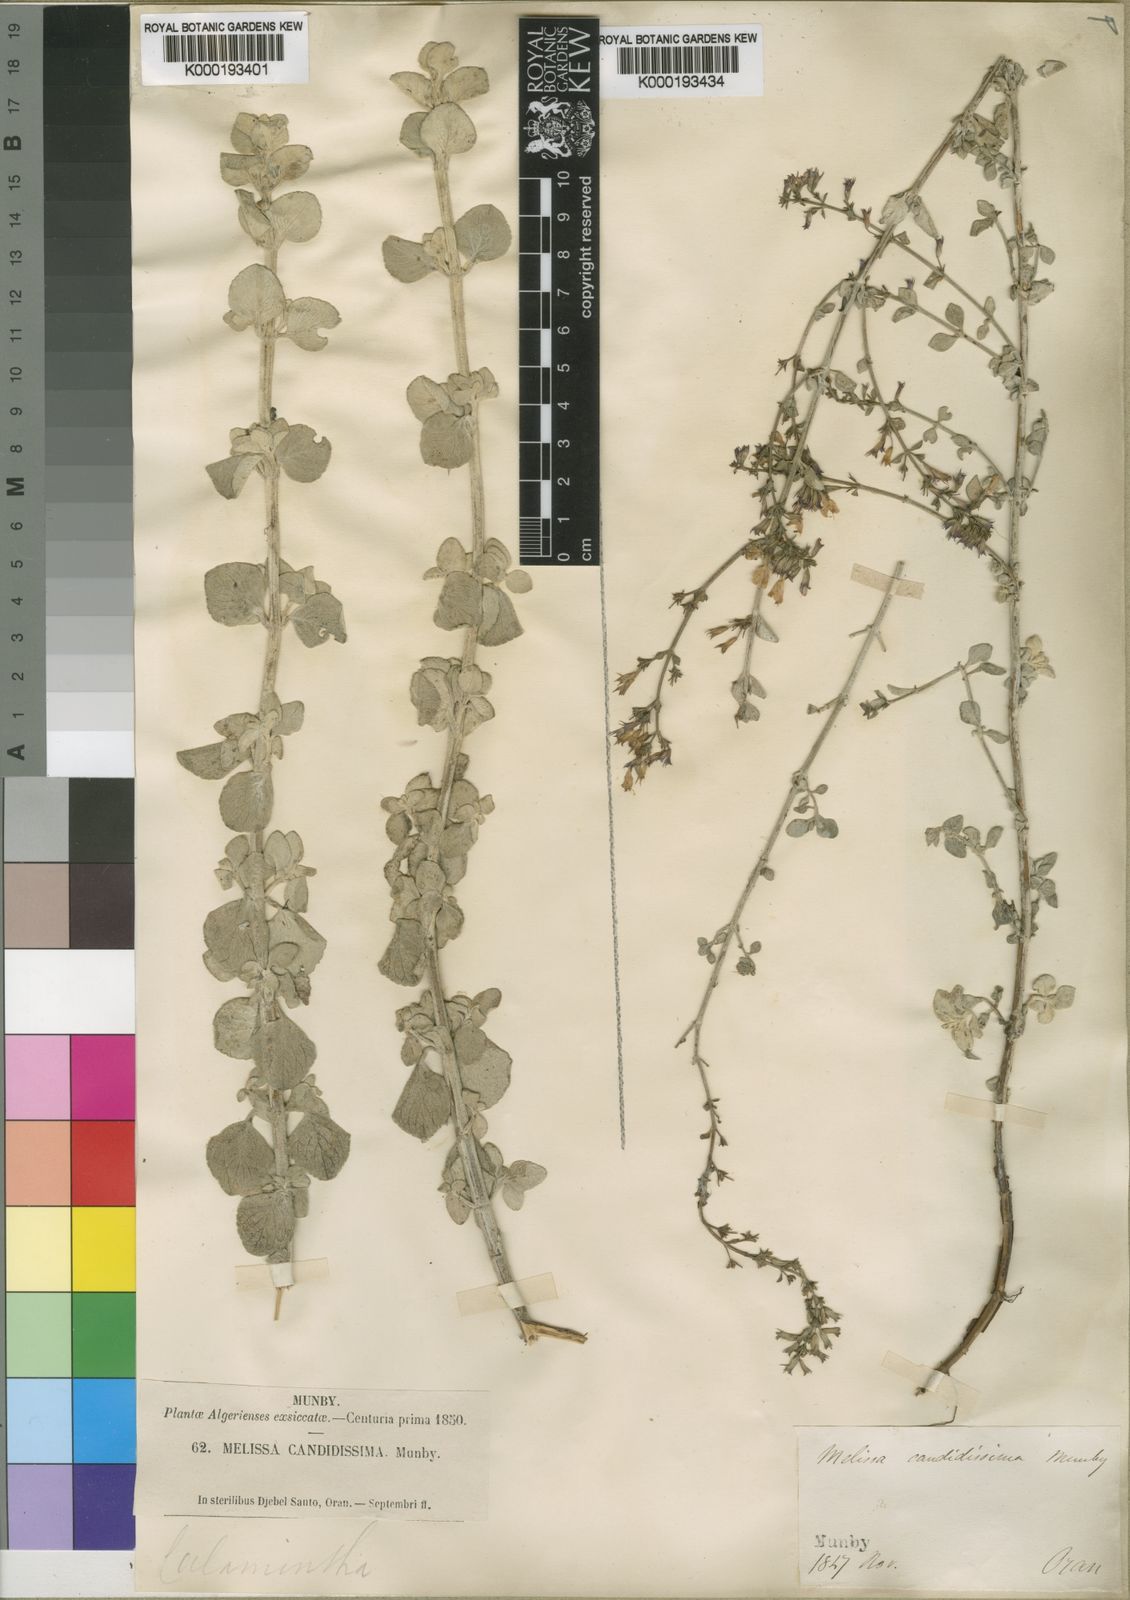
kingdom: Plantae
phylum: Tracheophyta
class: Magnoliopsida
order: Lamiales
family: Lamiaceae
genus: Clinopodium
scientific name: Clinopodium candidissimum
